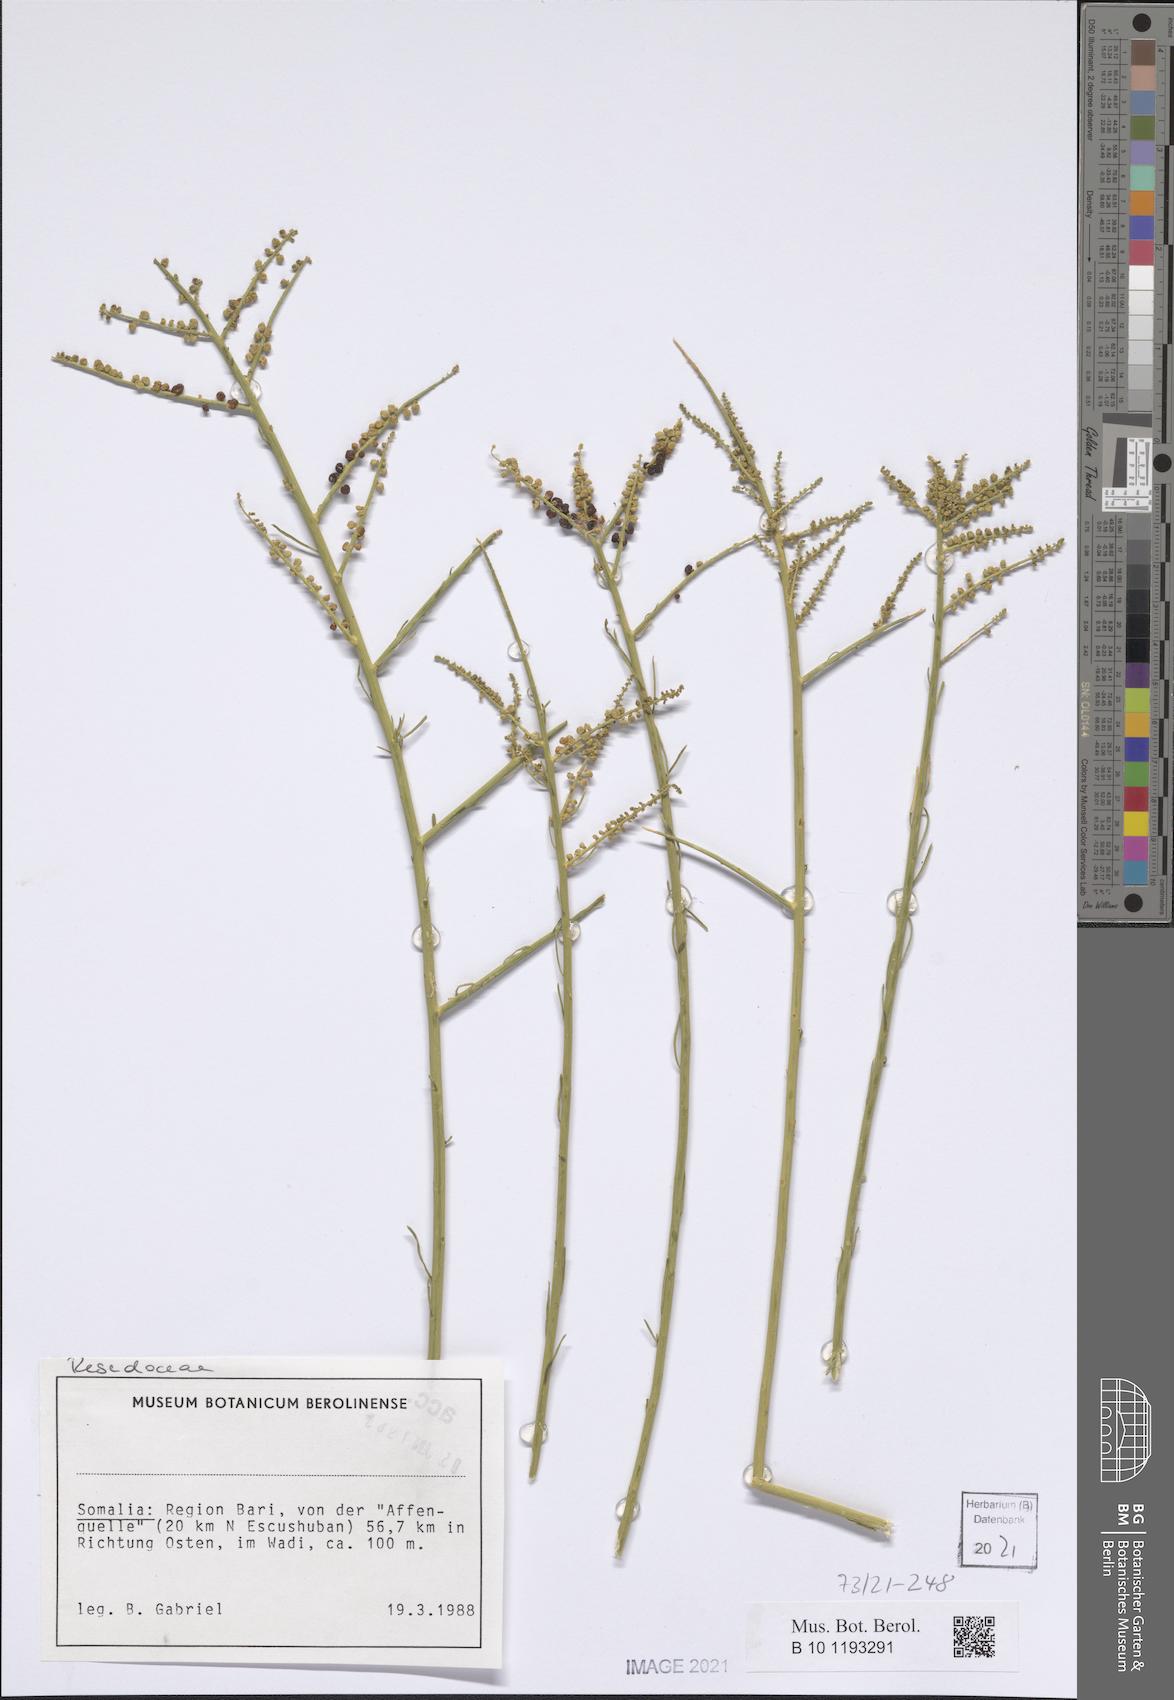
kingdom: Plantae
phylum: Tracheophyta
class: Magnoliopsida
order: Brassicales
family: Resedaceae
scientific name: Resedaceae
